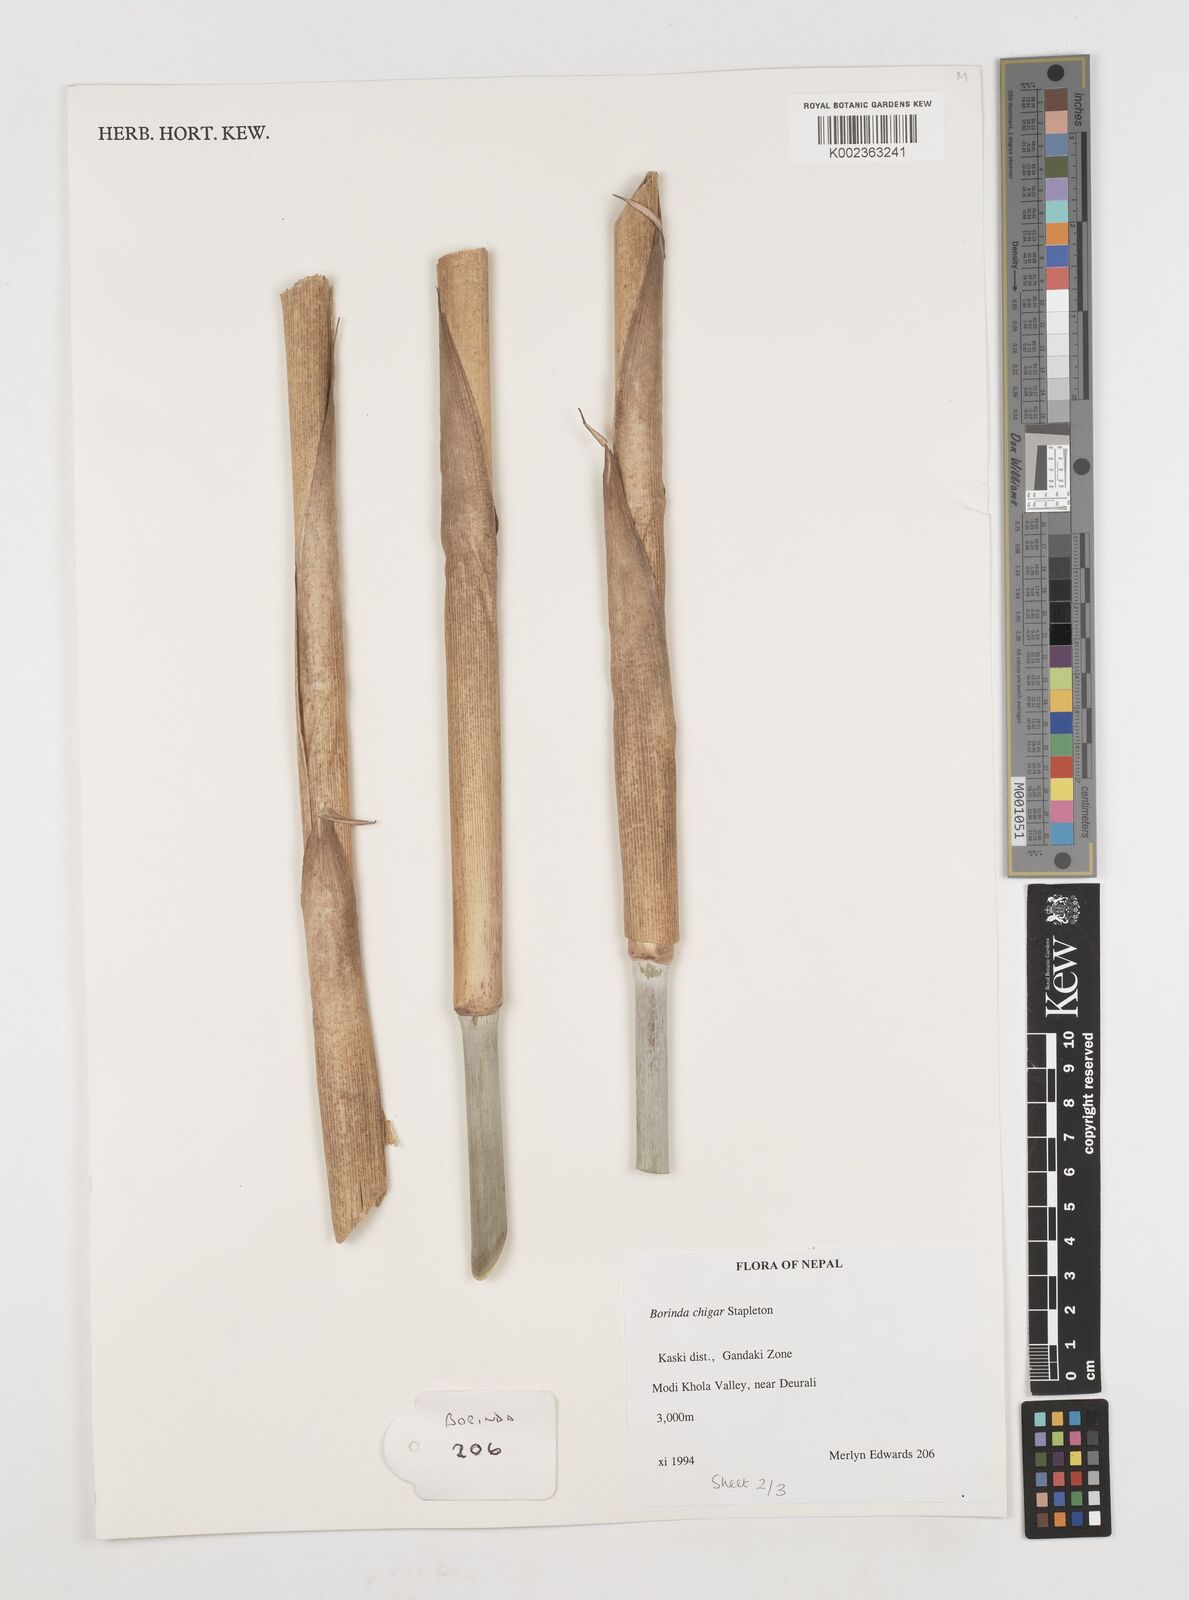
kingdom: Plantae
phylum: Tracheophyta
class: Liliopsida
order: Poales
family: Poaceae
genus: Fargesia
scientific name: Fargesia
